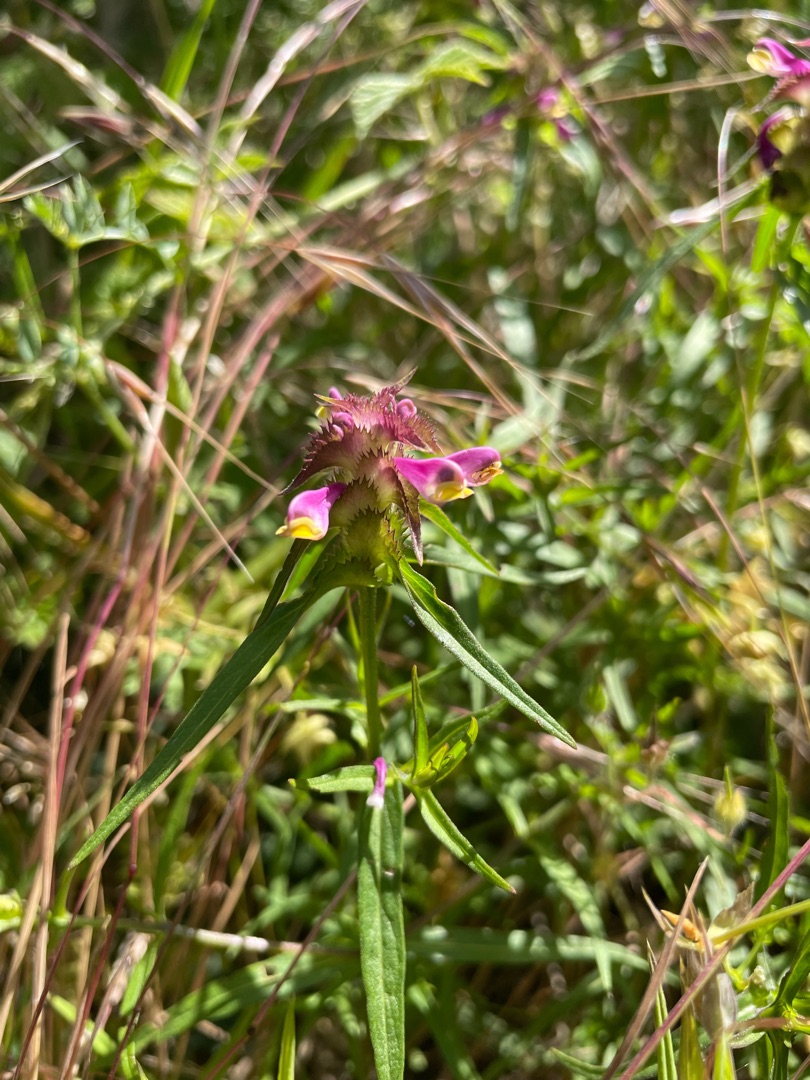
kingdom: Plantae
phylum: Tracheophyta
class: Magnoliopsida
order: Lamiales
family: Orobanchaceae
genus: Melampyrum
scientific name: Melampyrum cristatum
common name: Kantet kohvede
